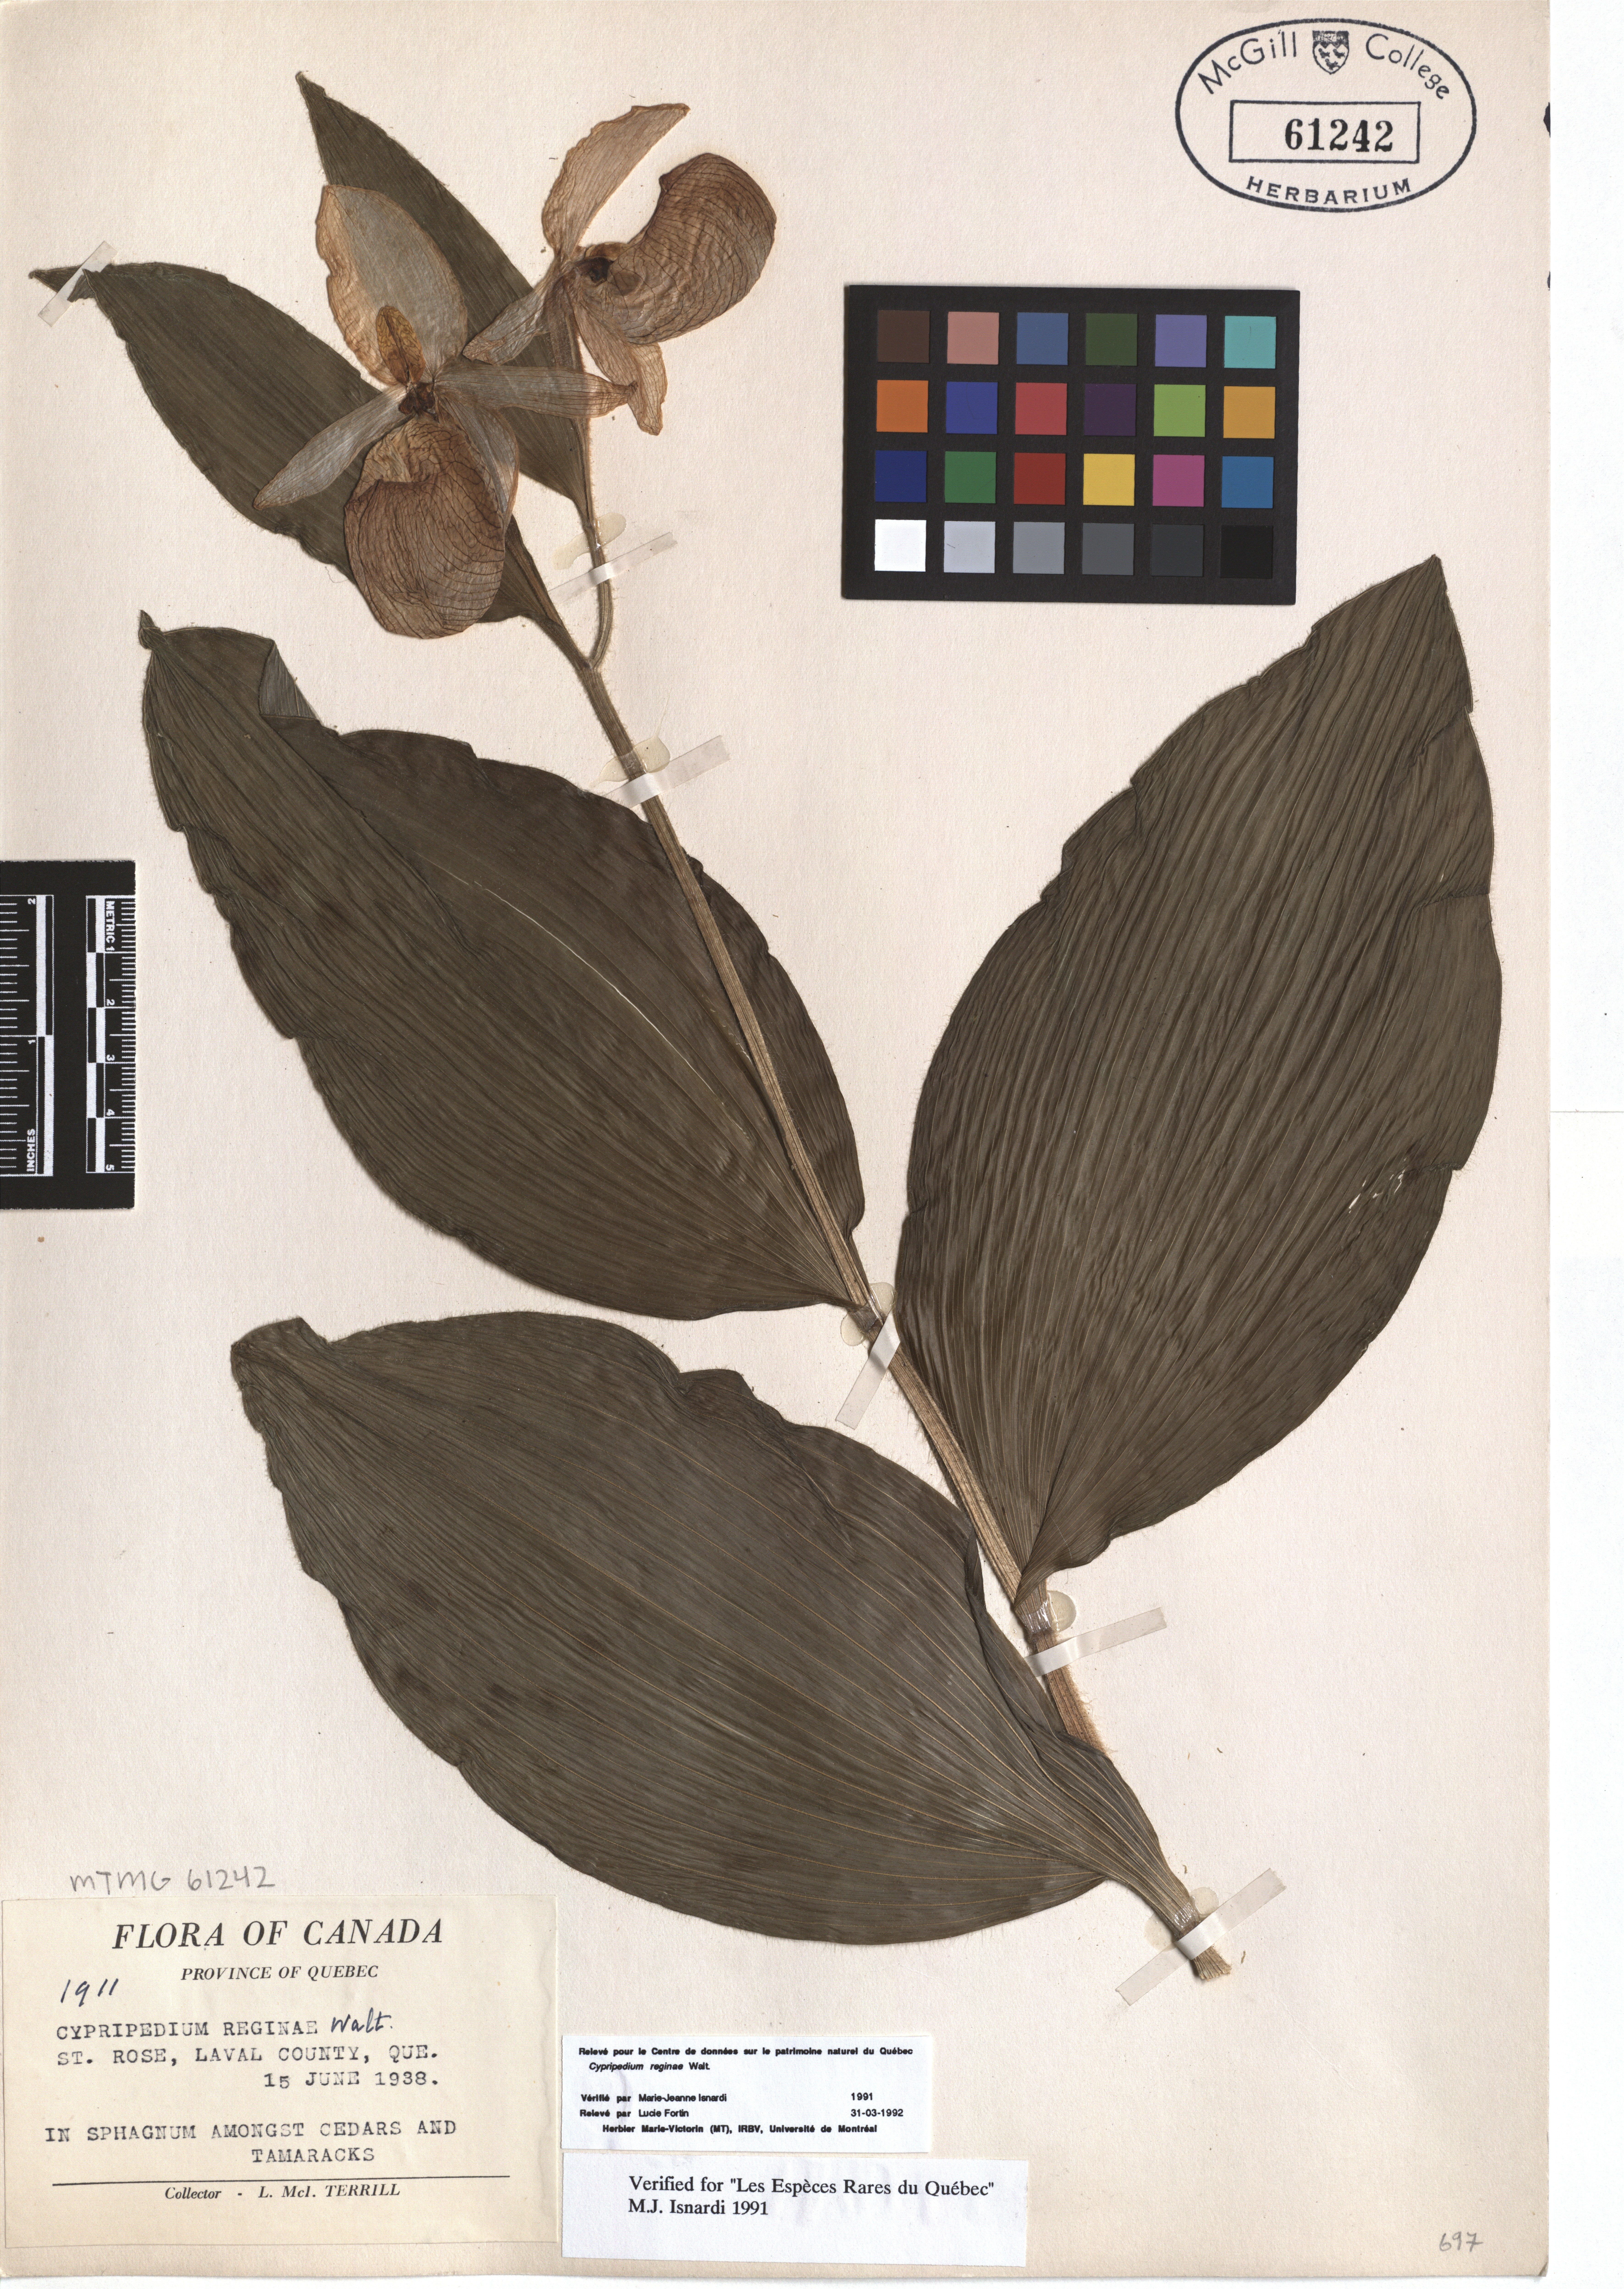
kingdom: Plantae
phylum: Tracheophyta
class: Liliopsida
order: Asparagales
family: Orchidaceae
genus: Cypripedium
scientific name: Cypripedium reginae
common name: Queen lady's-slipper
